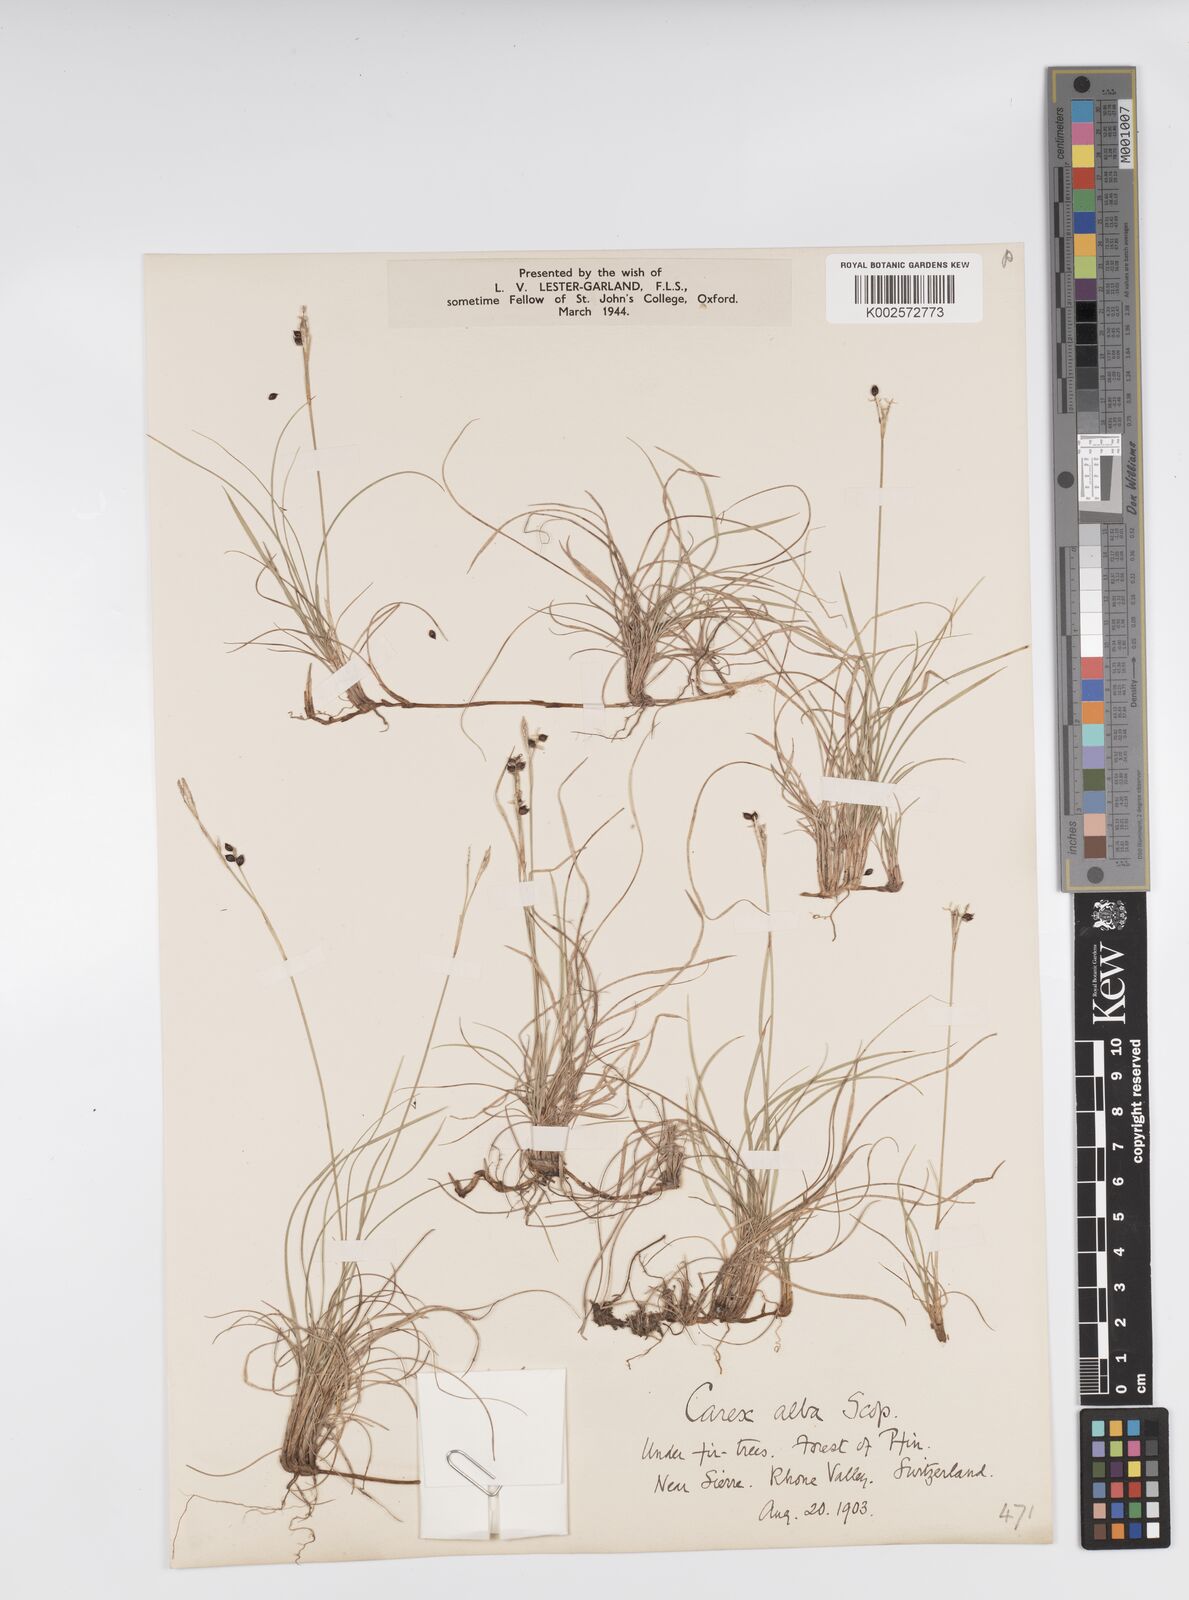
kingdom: Plantae
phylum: Tracheophyta
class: Liliopsida
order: Poales
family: Cyperaceae
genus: Carex
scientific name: Carex alba
